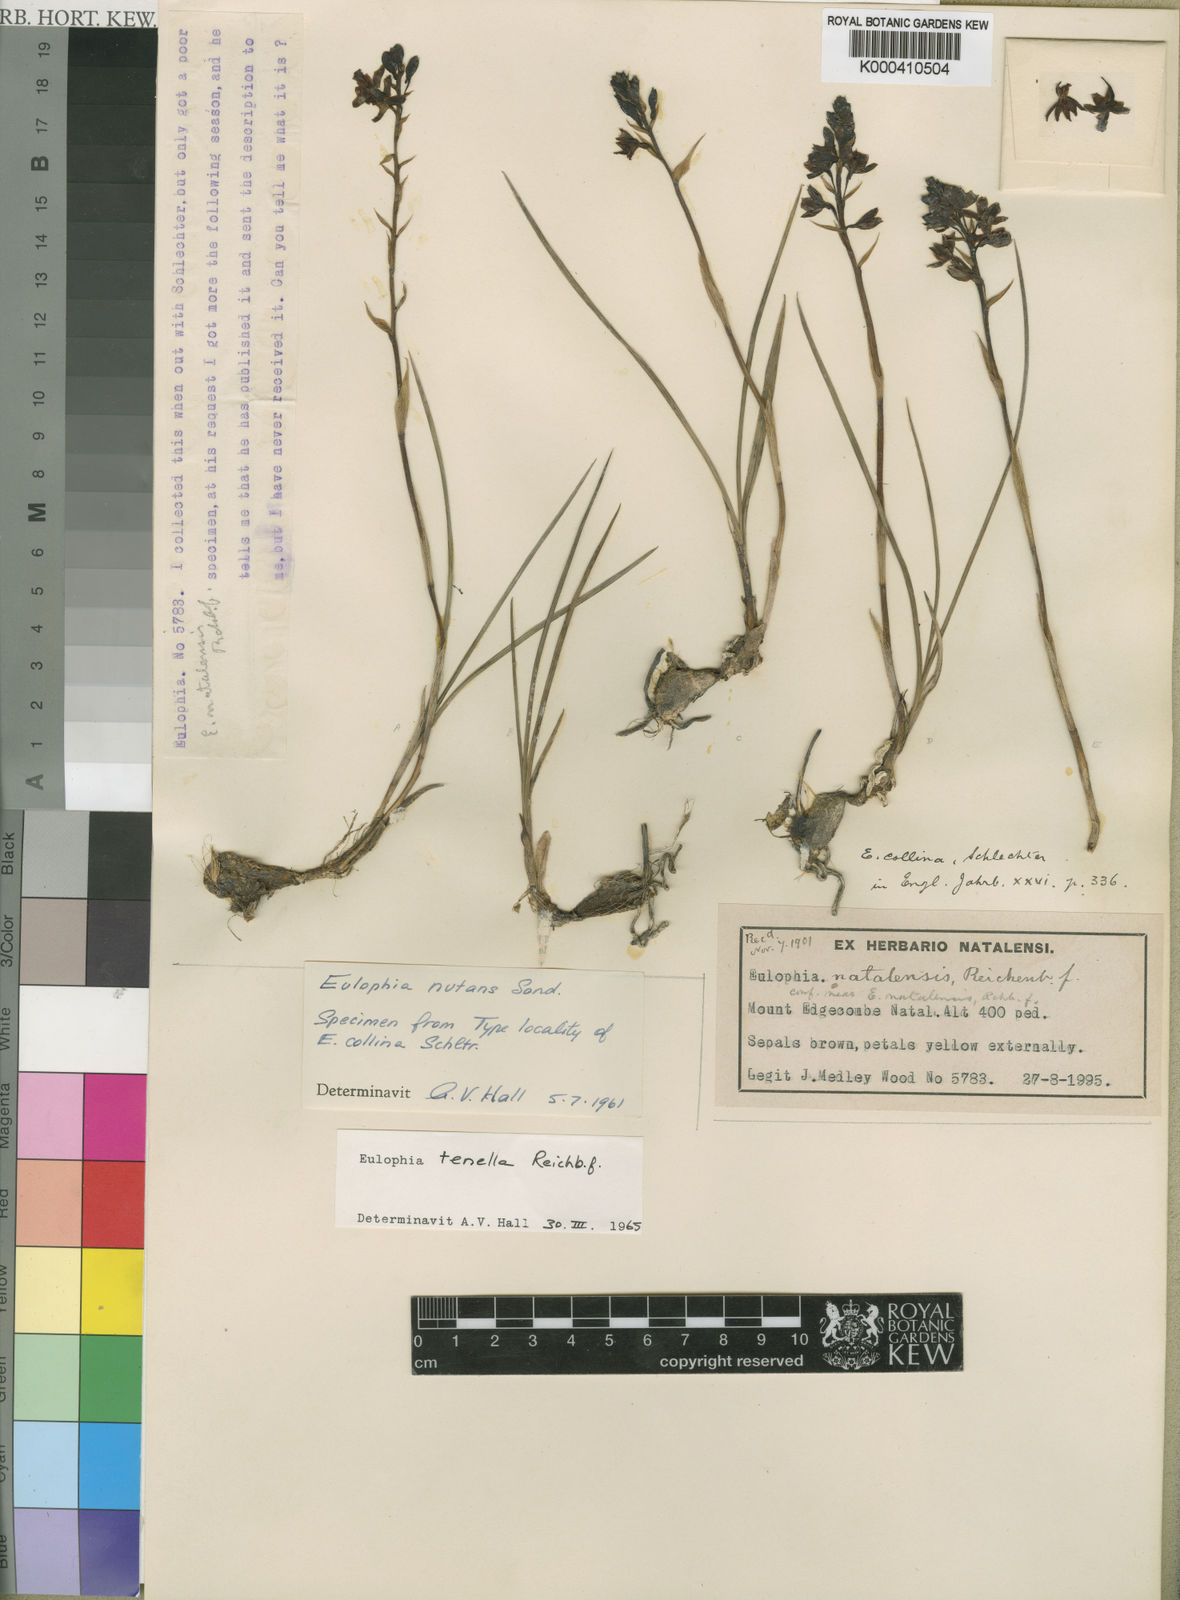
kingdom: Plantae
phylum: Tracheophyta
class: Liliopsida
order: Asparagales
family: Orchidaceae
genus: Eulophia
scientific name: Eulophia tenella
